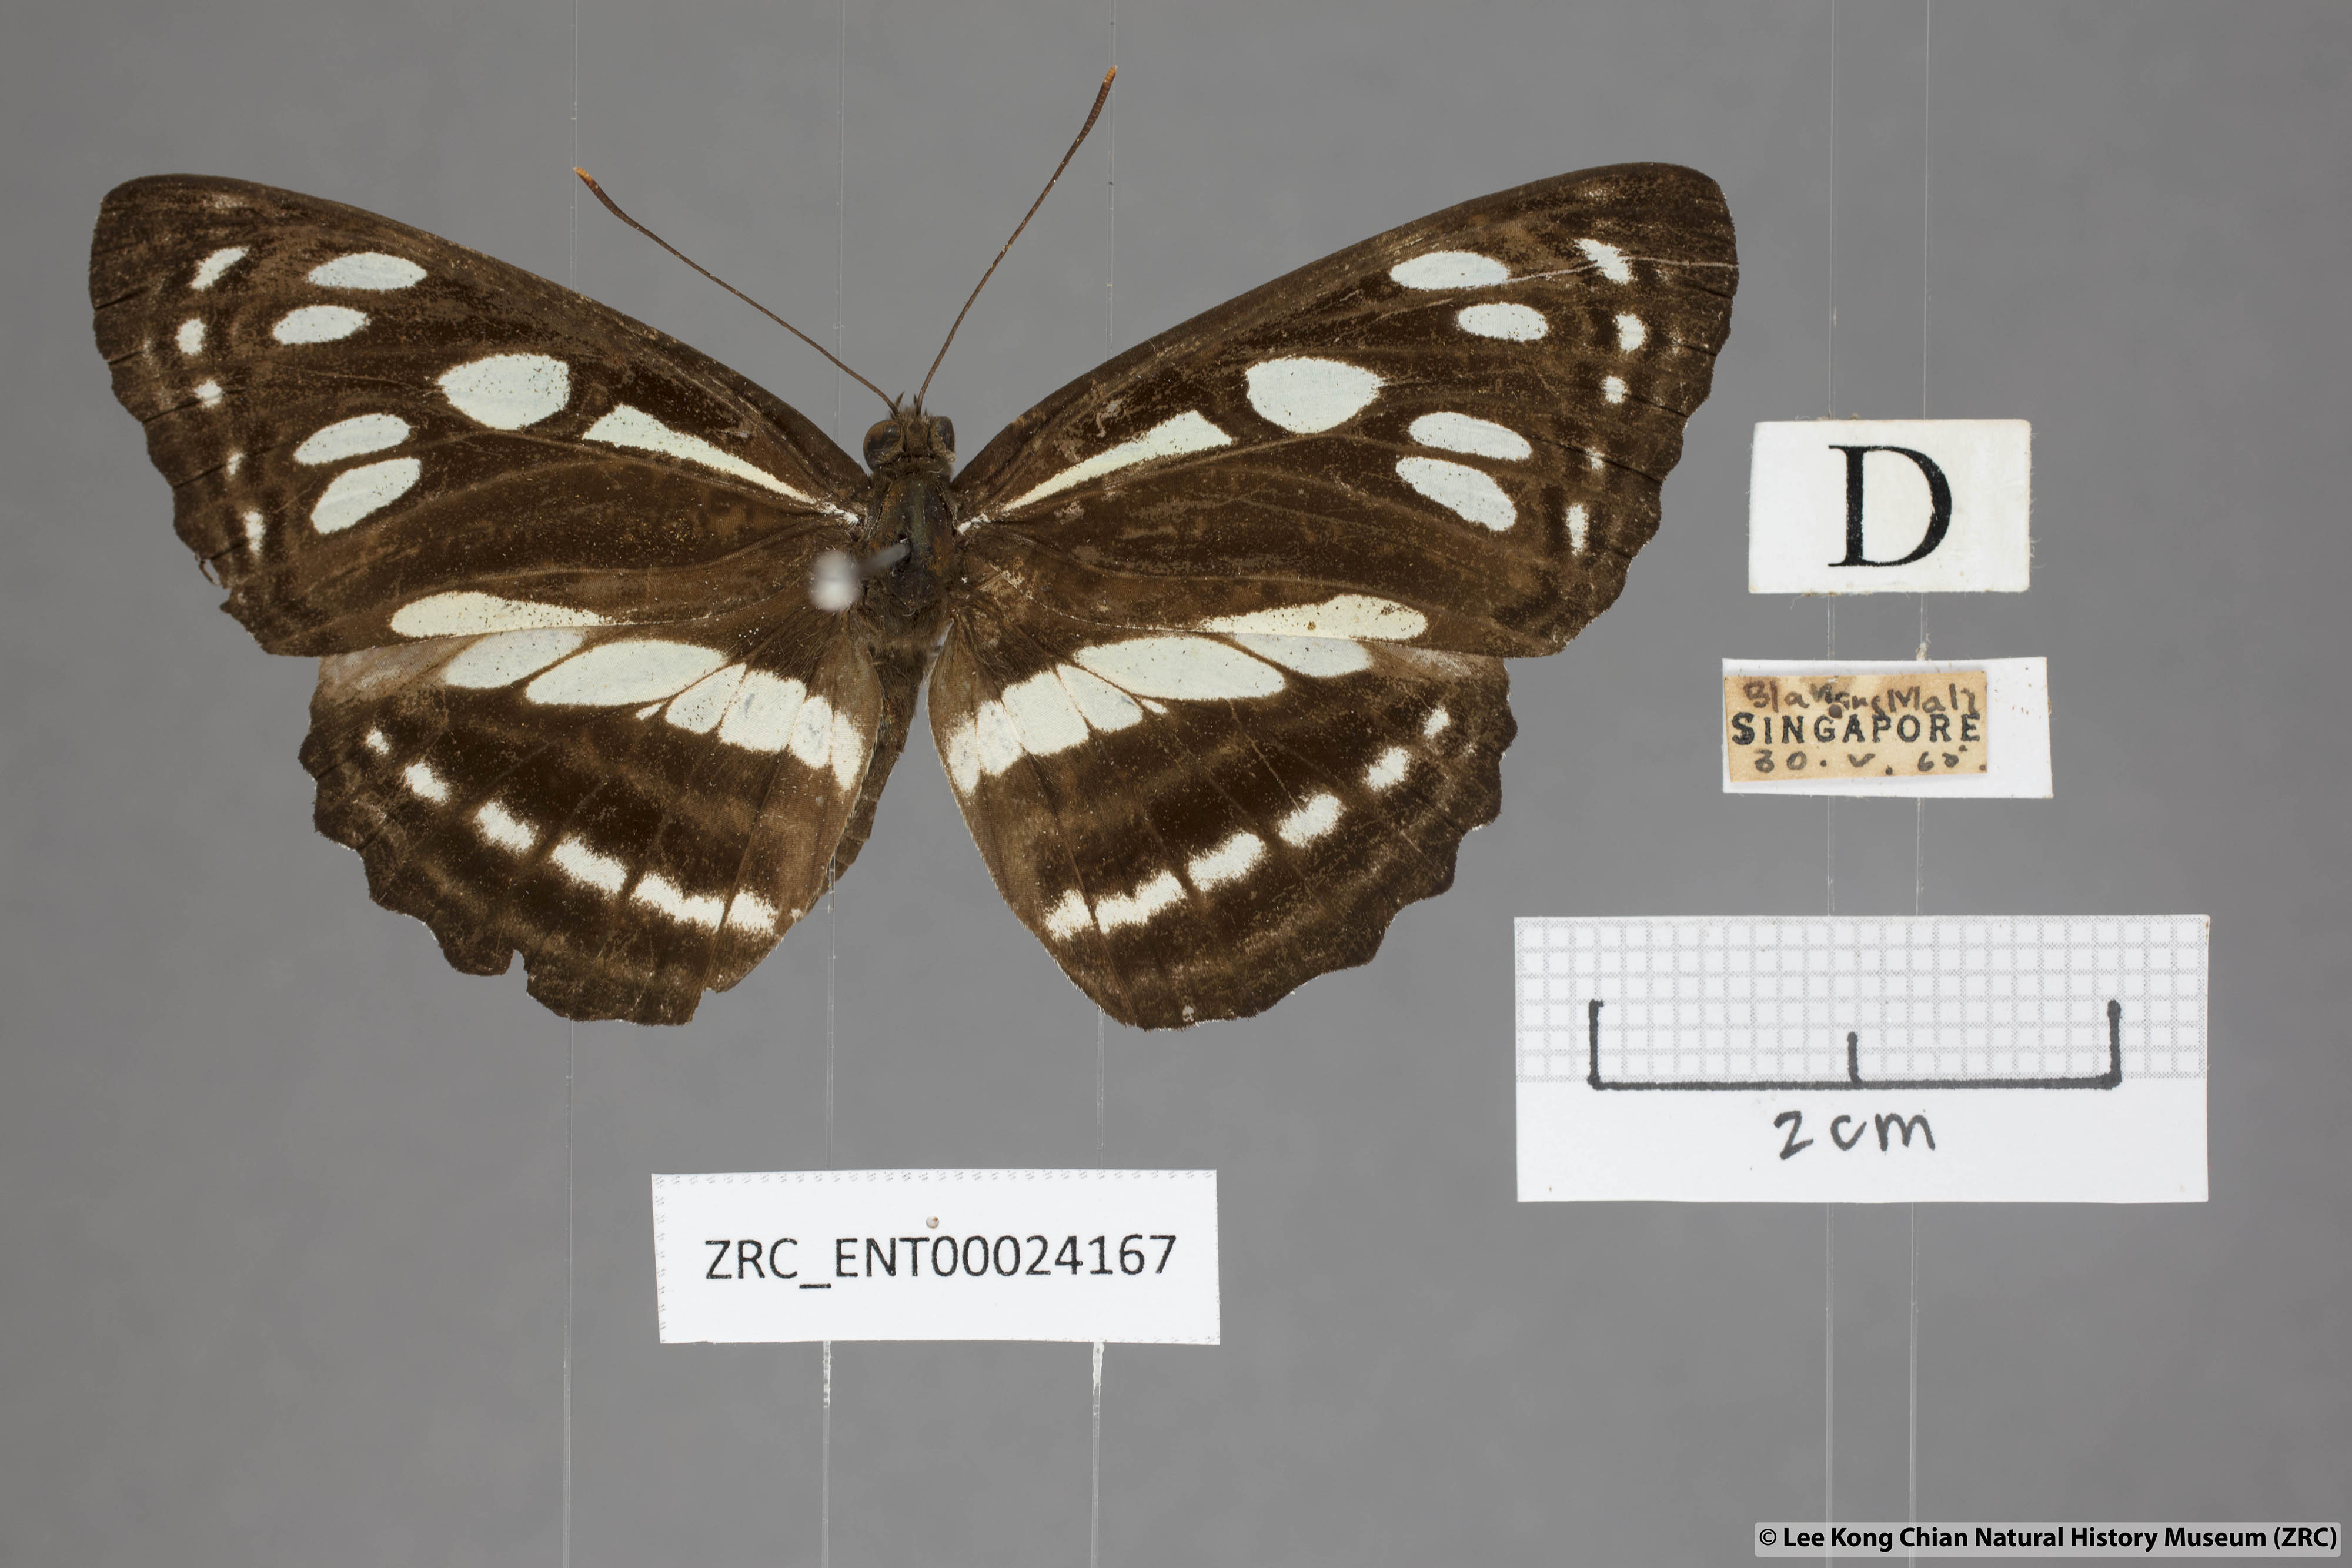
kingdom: Animalia
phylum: Arthropoda
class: Insecta
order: Lepidoptera
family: Nymphalidae
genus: Phaedyma
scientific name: Phaedyma columella
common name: Short banded sailer
